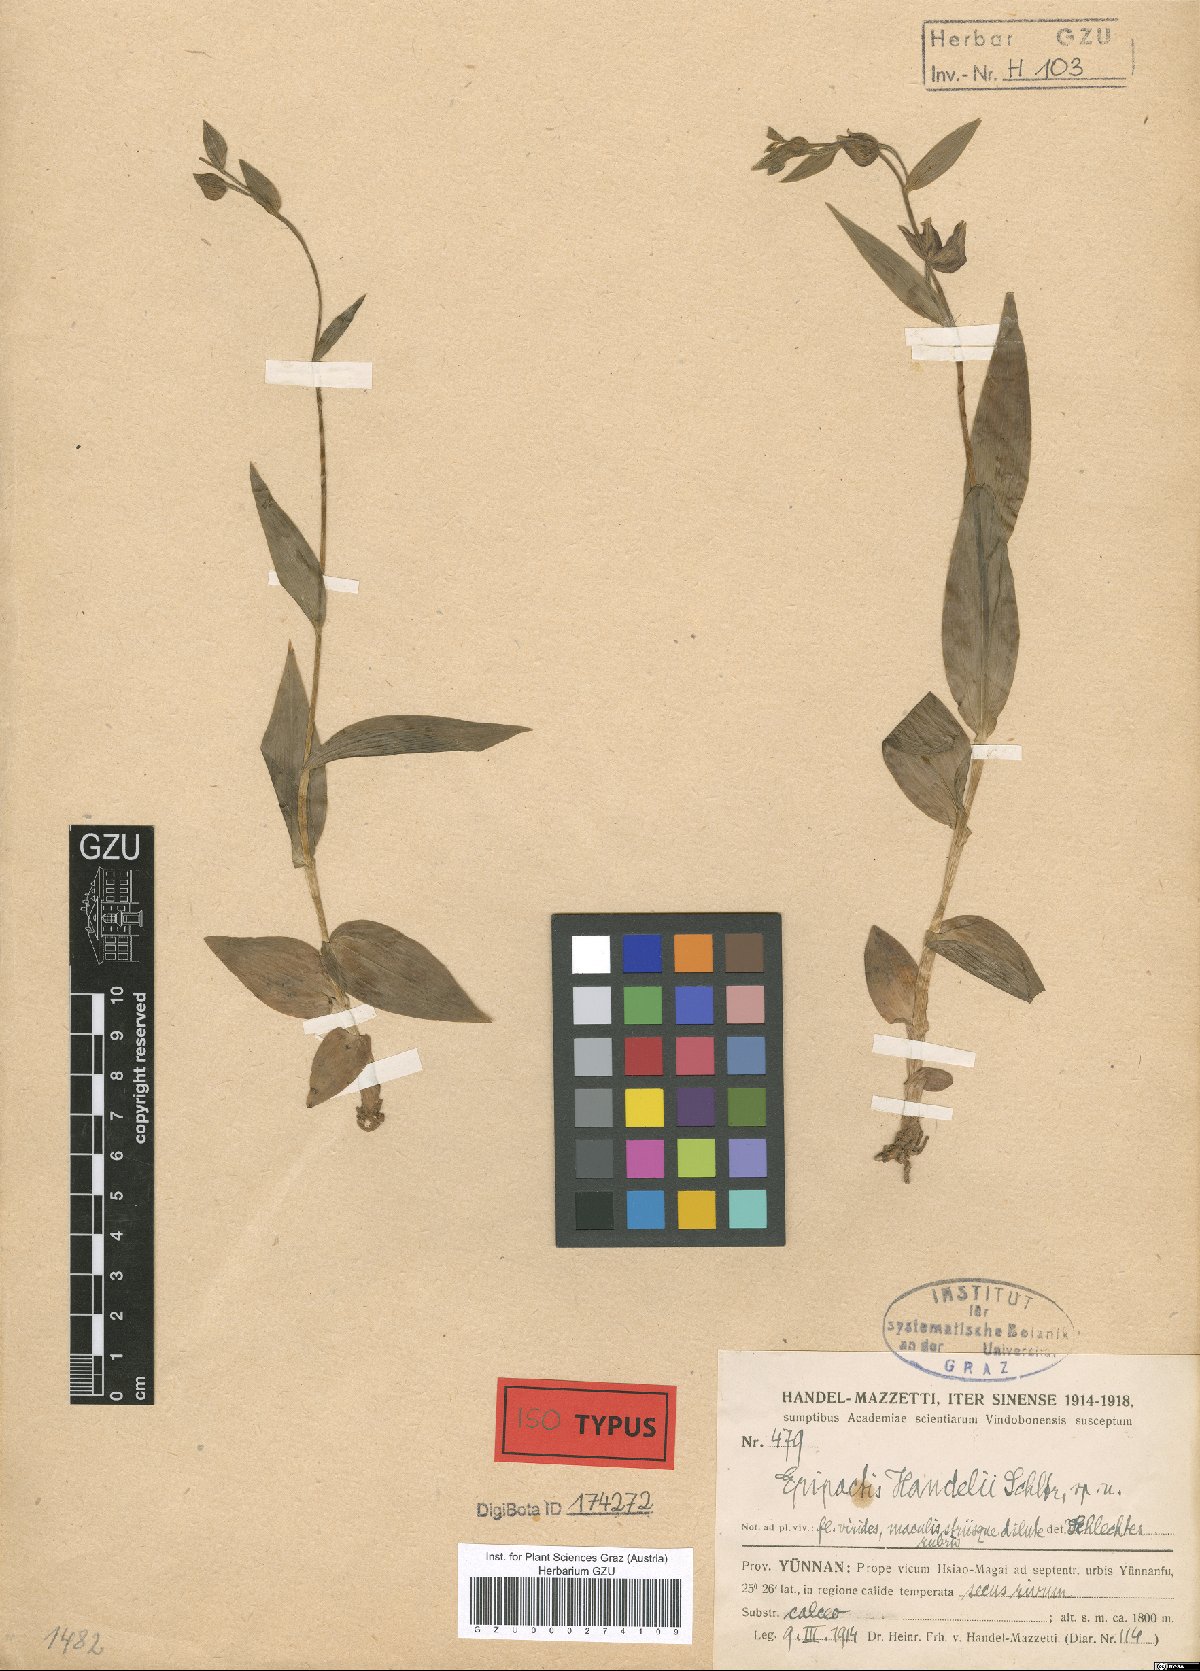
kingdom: Plantae
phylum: Tracheophyta
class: Liliopsida
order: Asparagales
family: Orchidaceae
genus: Epipactis
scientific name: Epipactis veratrifolia
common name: Eastern marsh helleborine
